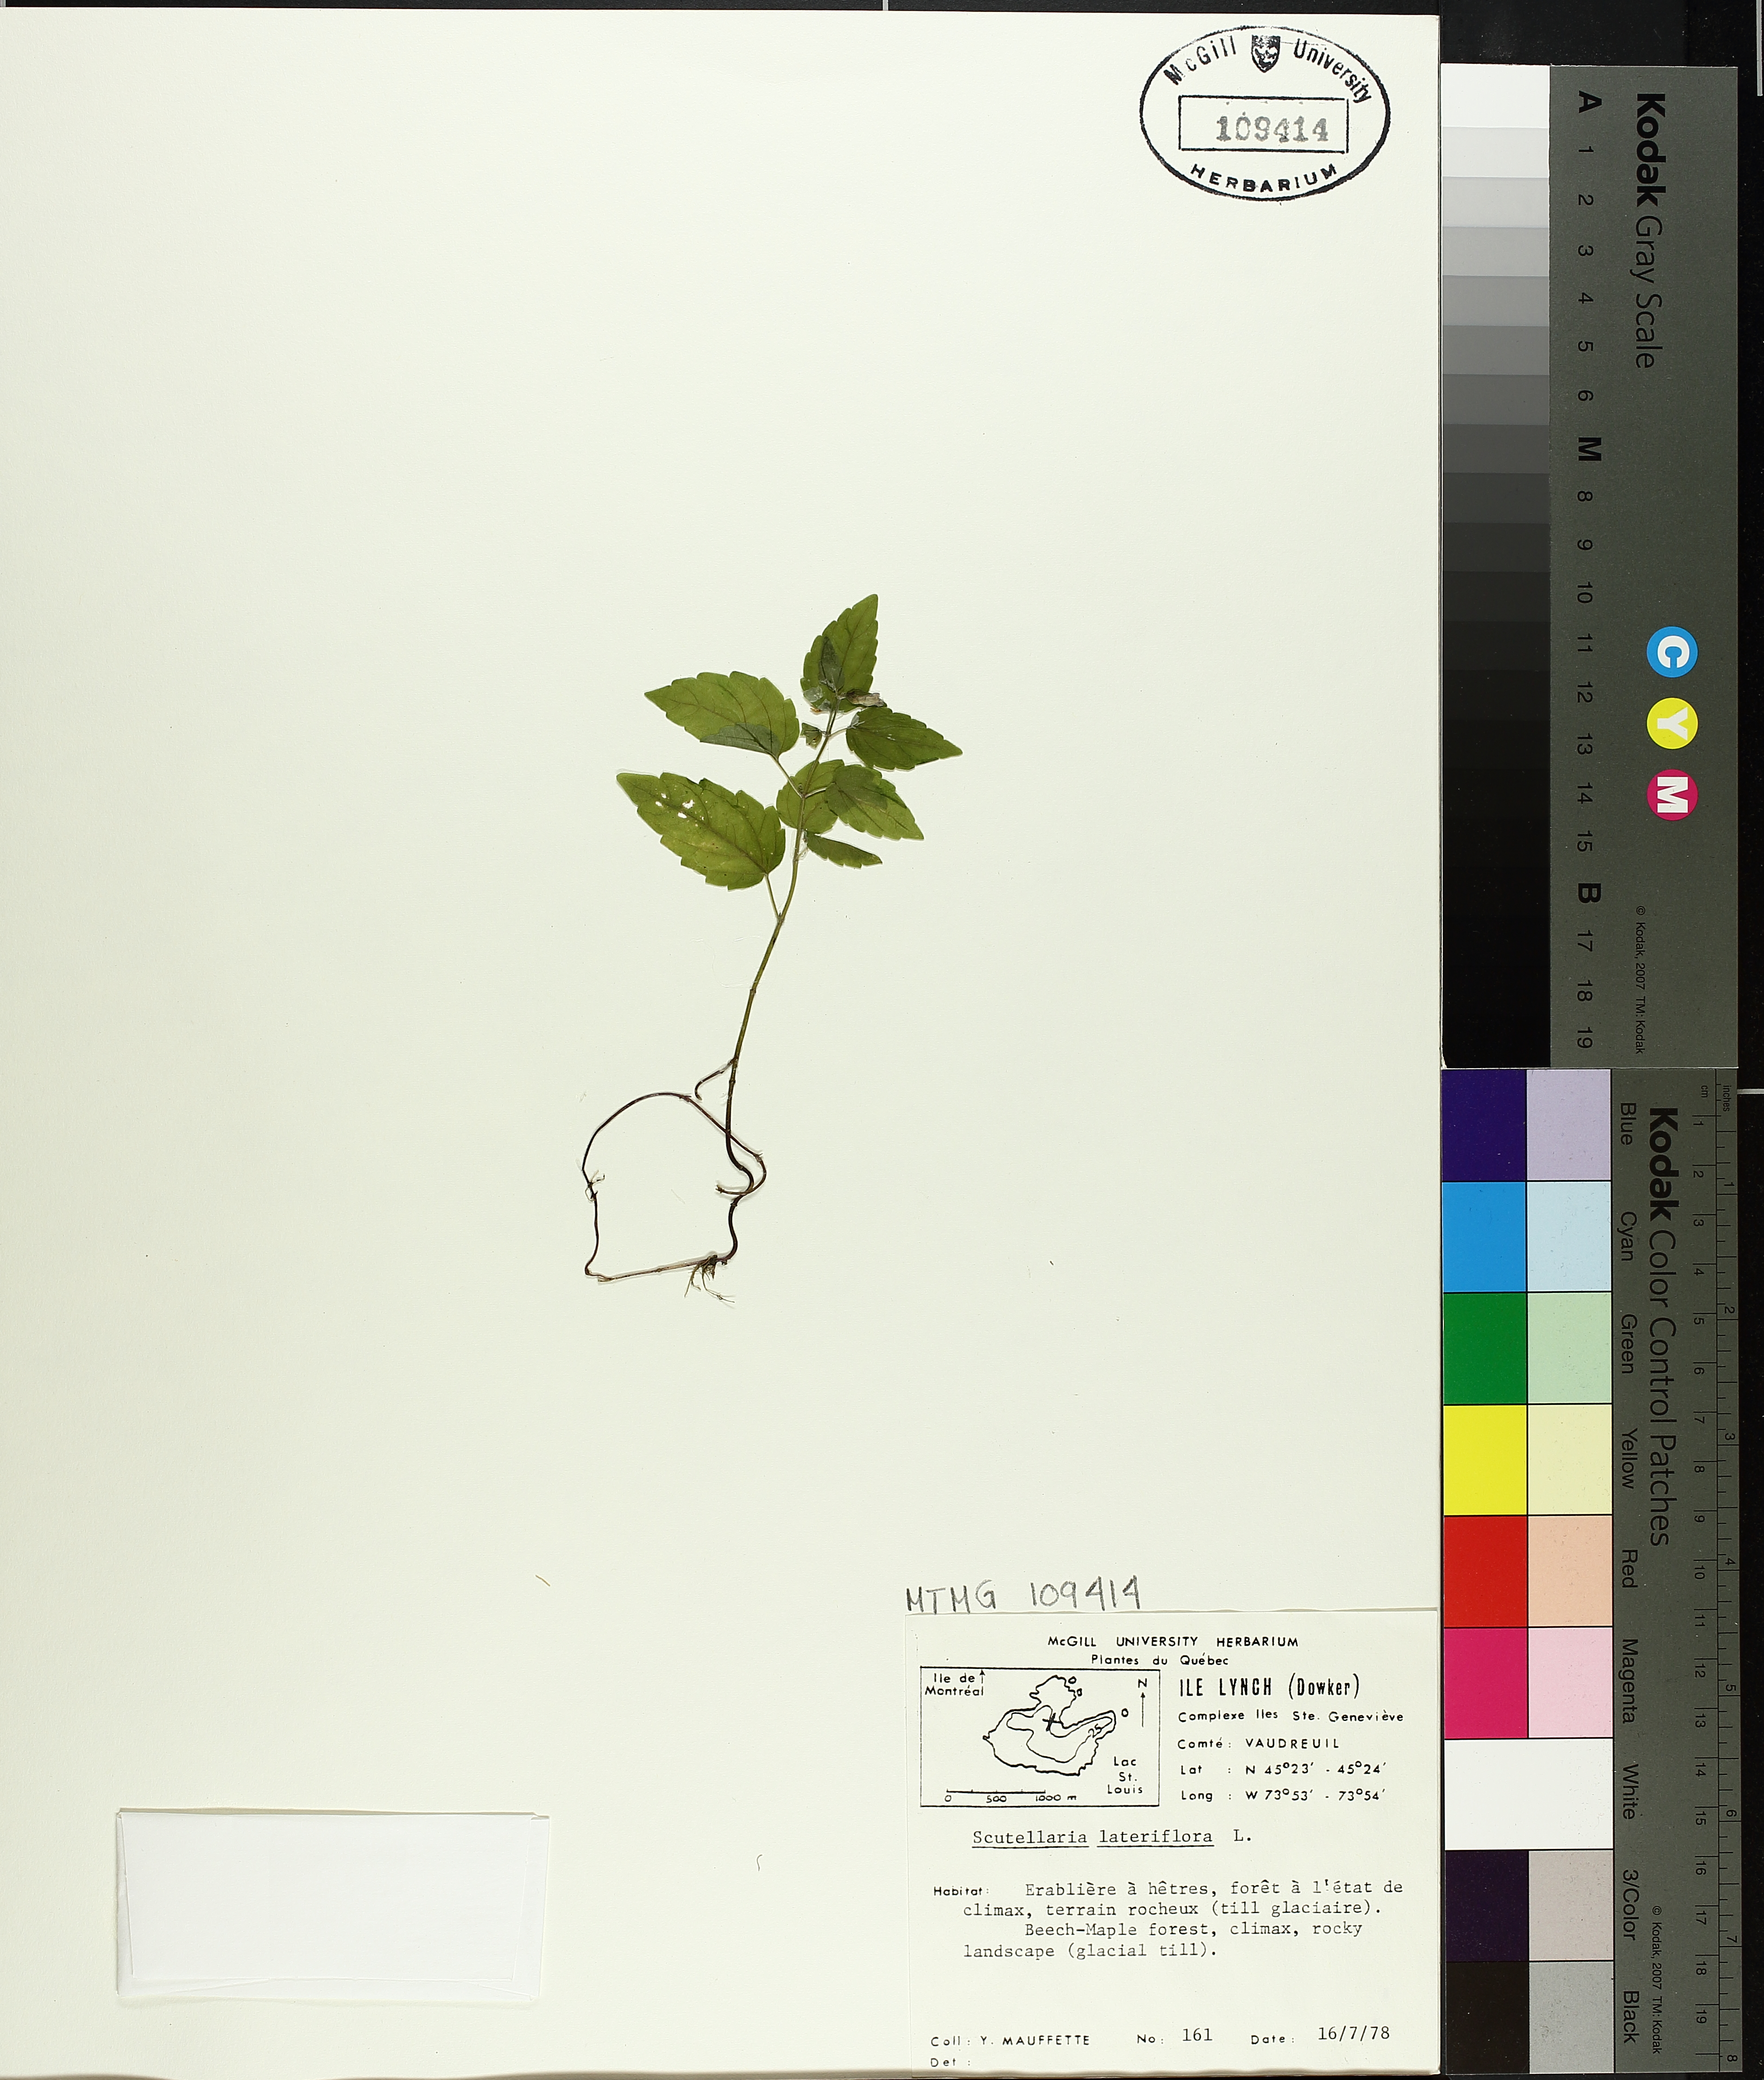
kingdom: Plantae
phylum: Tracheophyta
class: Magnoliopsida
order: Lamiales
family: Lamiaceae
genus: Scutellaria
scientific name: Scutellaria lateriflora
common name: Blue skullcap
